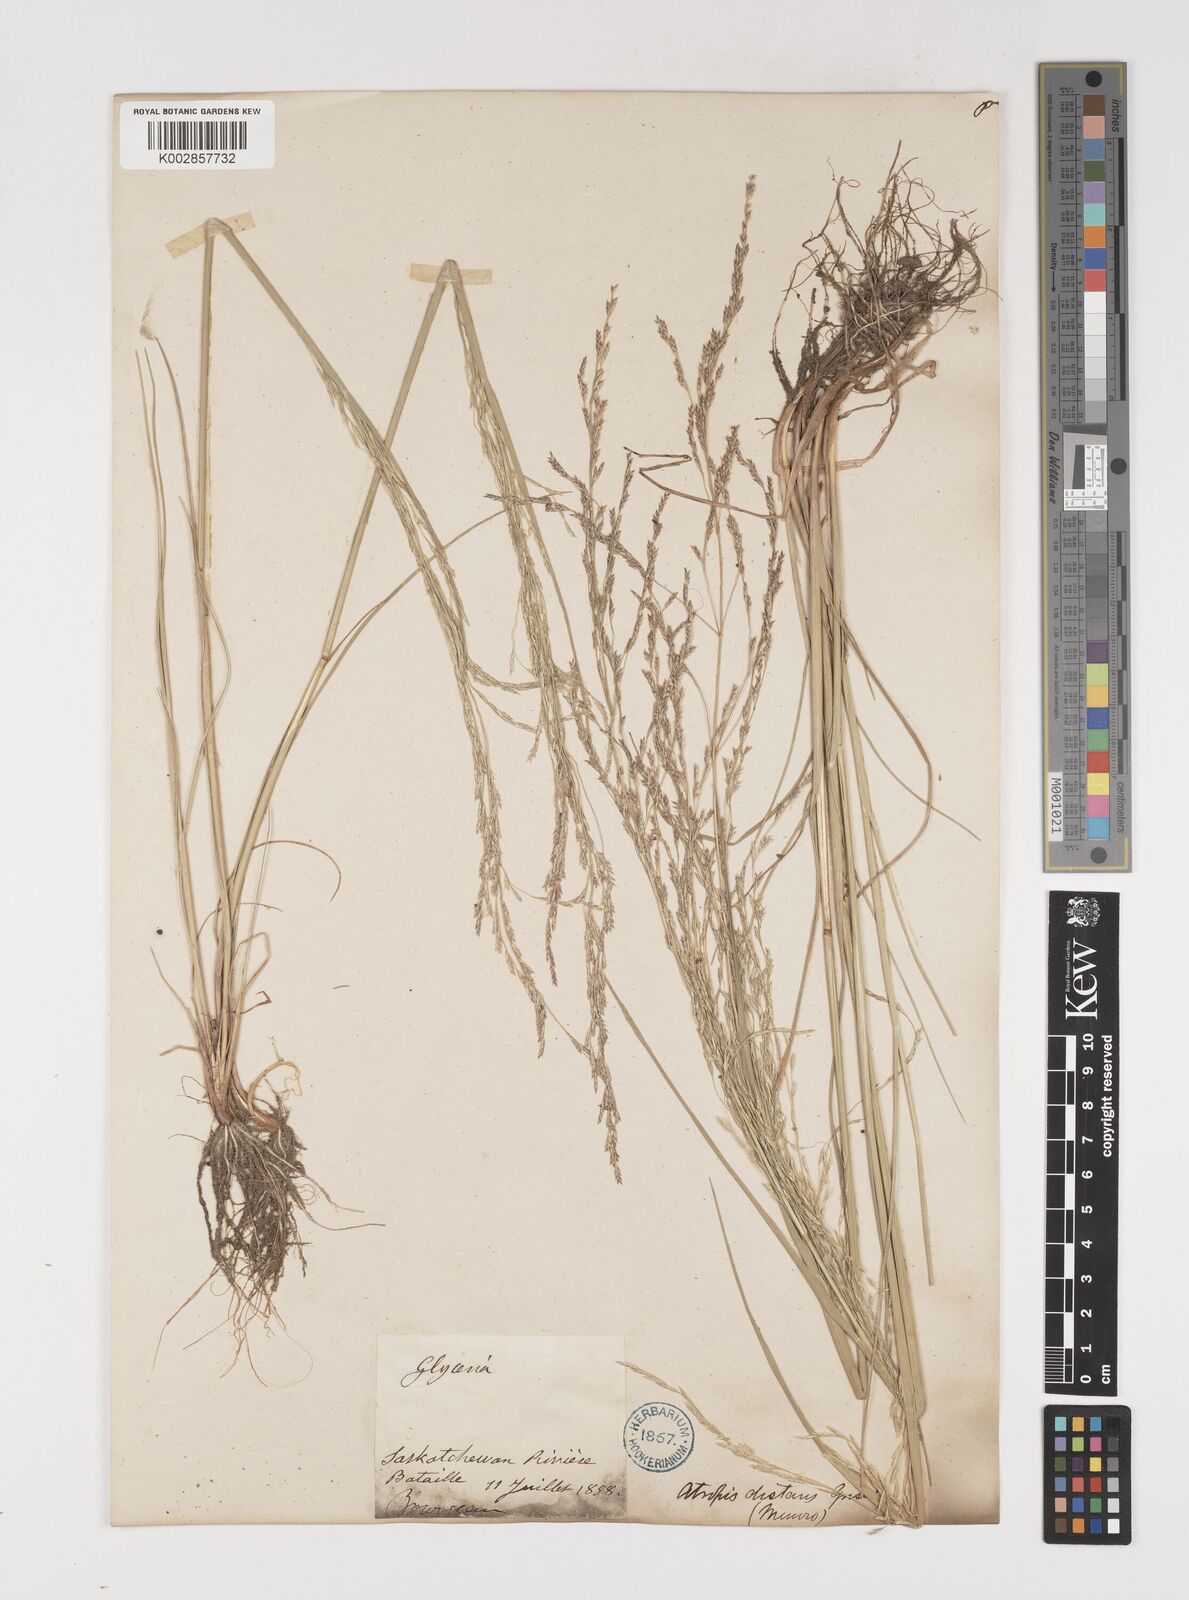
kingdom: Plantae
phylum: Tracheophyta
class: Liliopsida
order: Poales
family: Poaceae
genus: Puccinellia
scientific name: Puccinellia nuttalliana
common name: Nuttall's alkali grass
